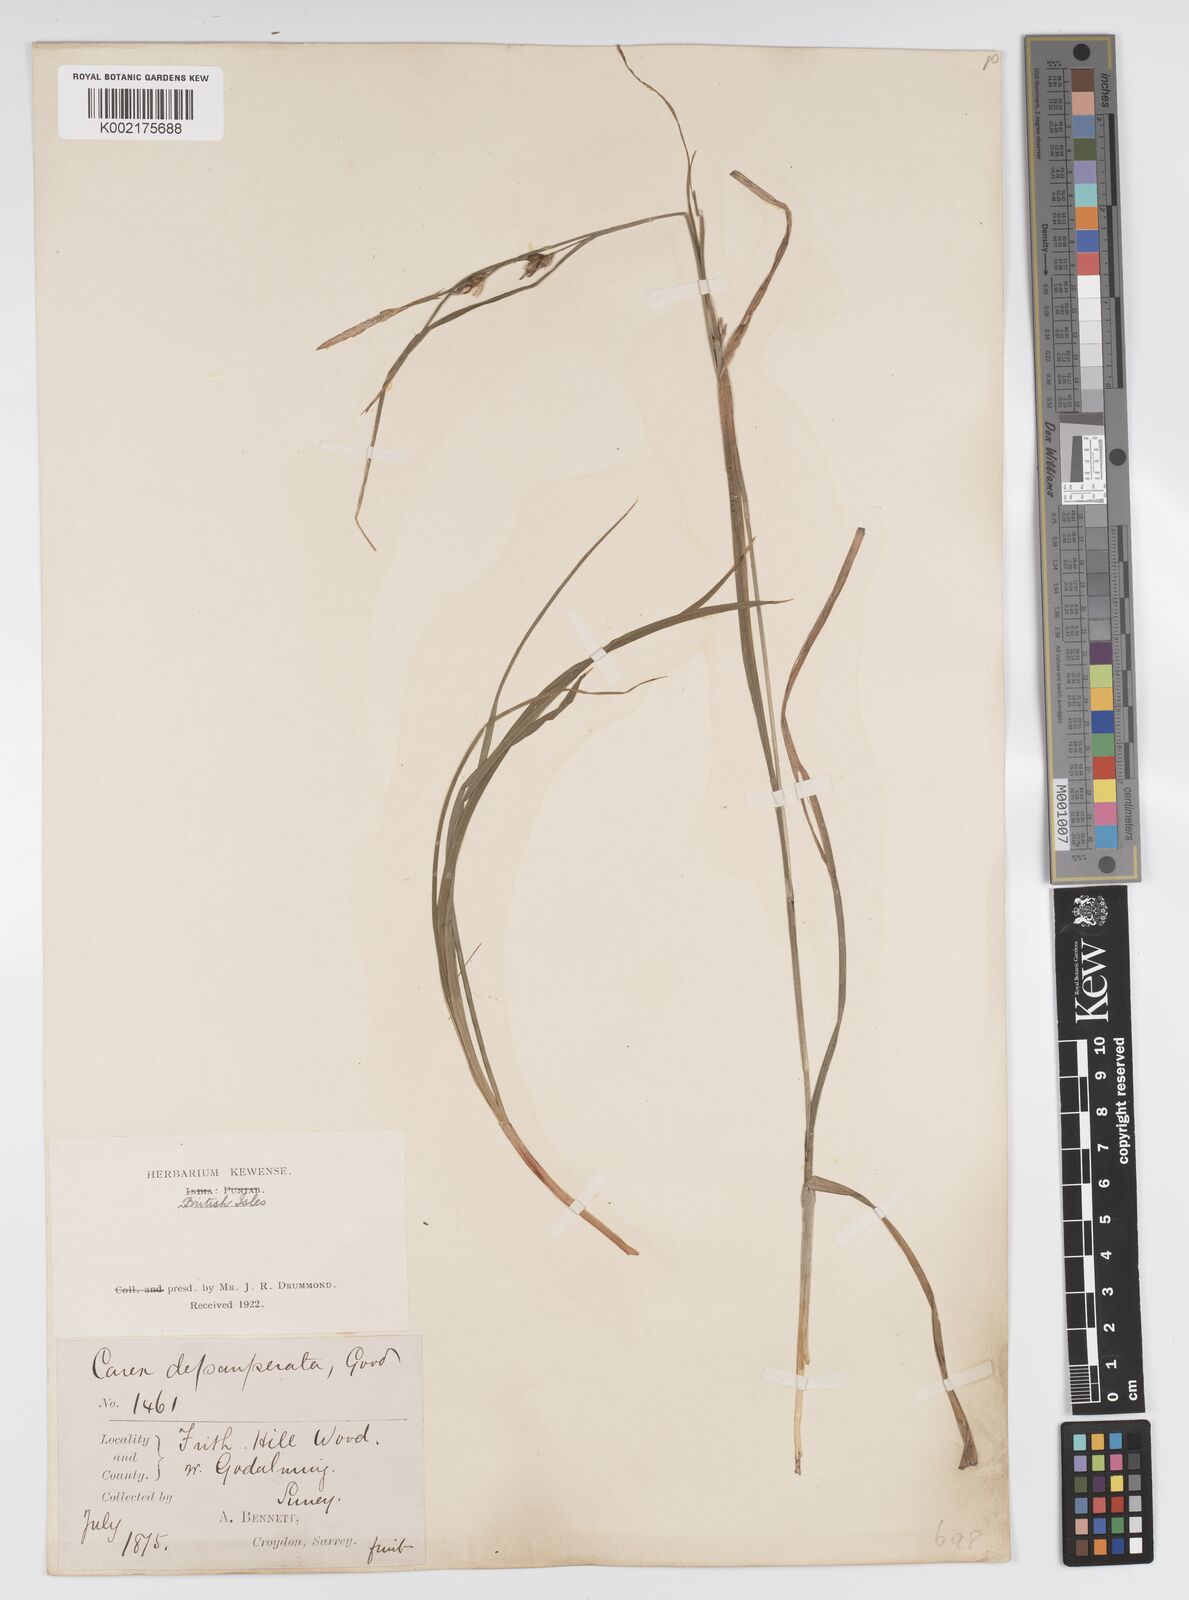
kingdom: Plantae
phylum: Tracheophyta
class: Liliopsida
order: Poales
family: Cyperaceae
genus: Carex
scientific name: Carex vaginata
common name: Sheathed sedge
